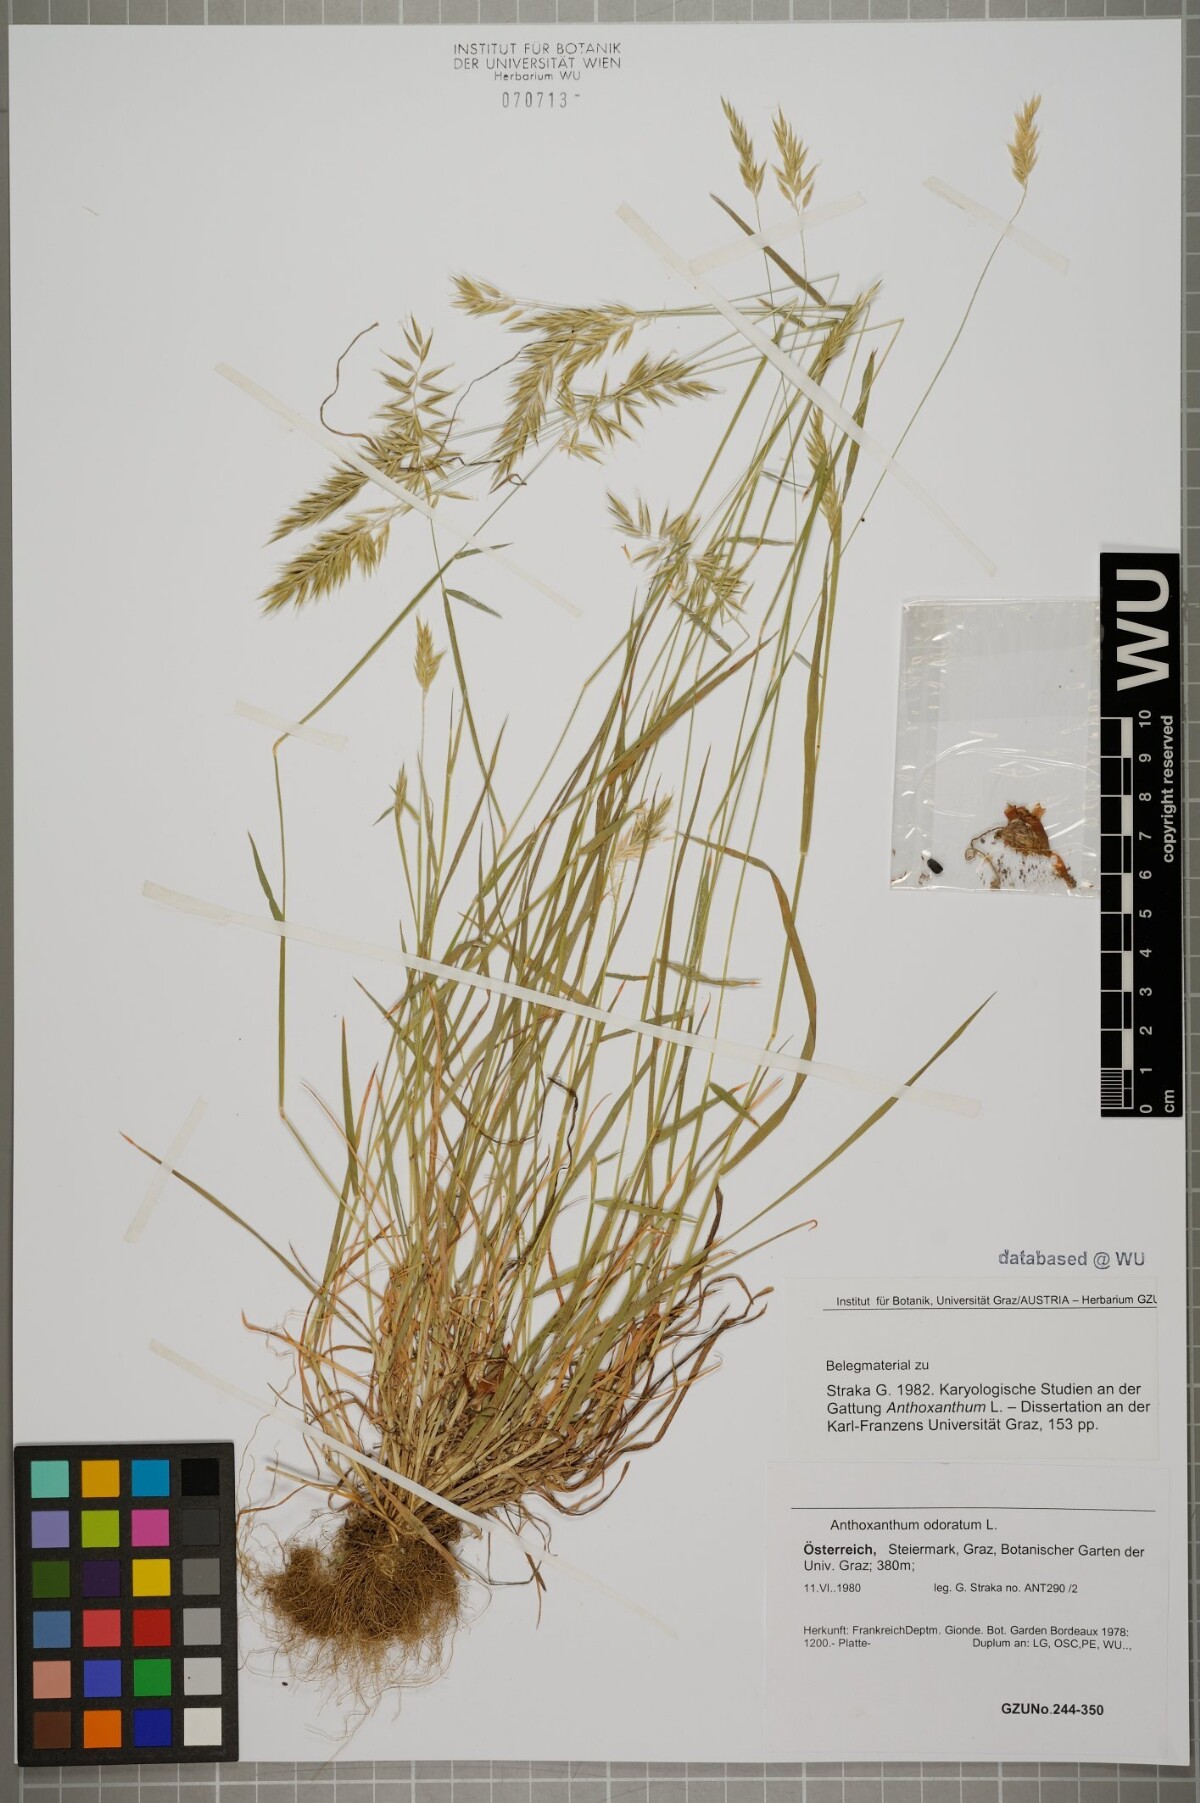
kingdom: Plantae
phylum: Tracheophyta
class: Liliopsida
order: Poales
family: Poaceae
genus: Anthoxanthum
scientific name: Anthoxanthum odoratum
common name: Sweet vernalgrass
